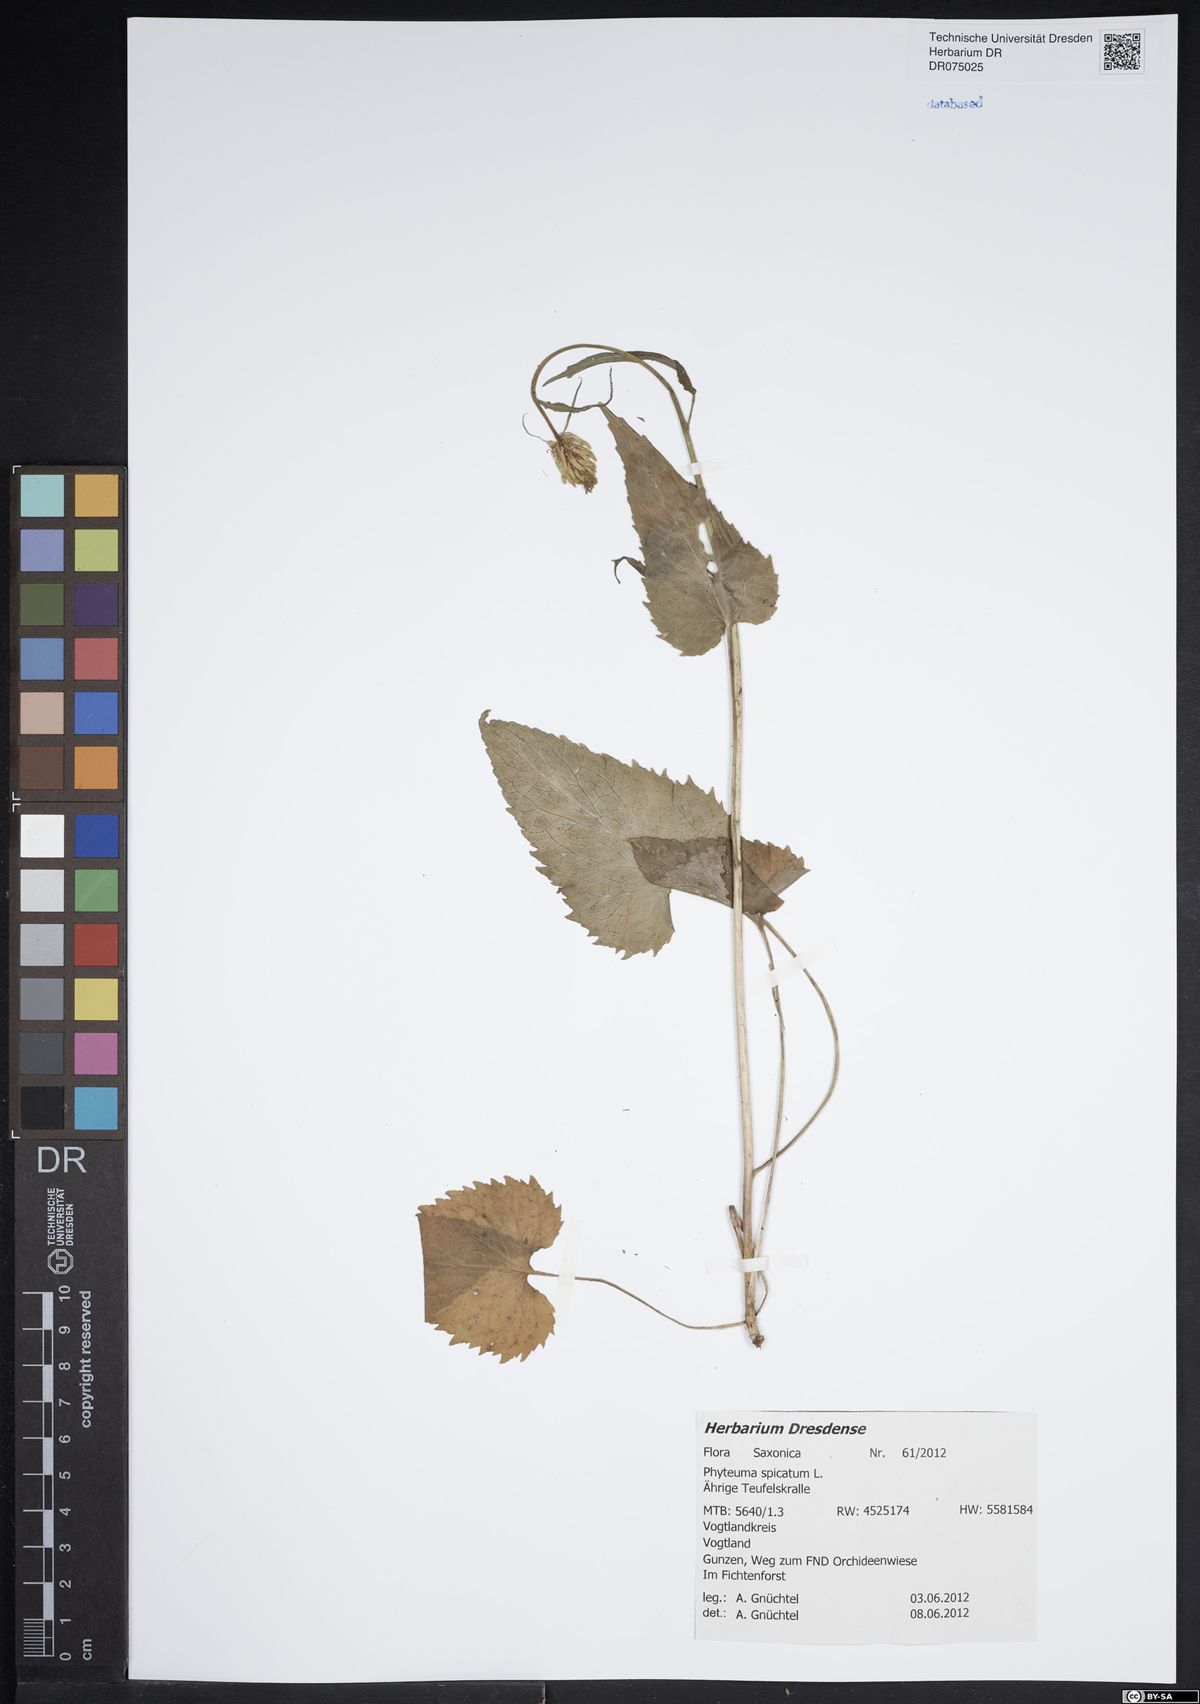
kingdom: Plantae
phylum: Tracheophyta
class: Magnoliopsida
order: Asterales
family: Campanulaceae
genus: Phyteuma
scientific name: Phyteuma spicatum
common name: Spiked rampion
